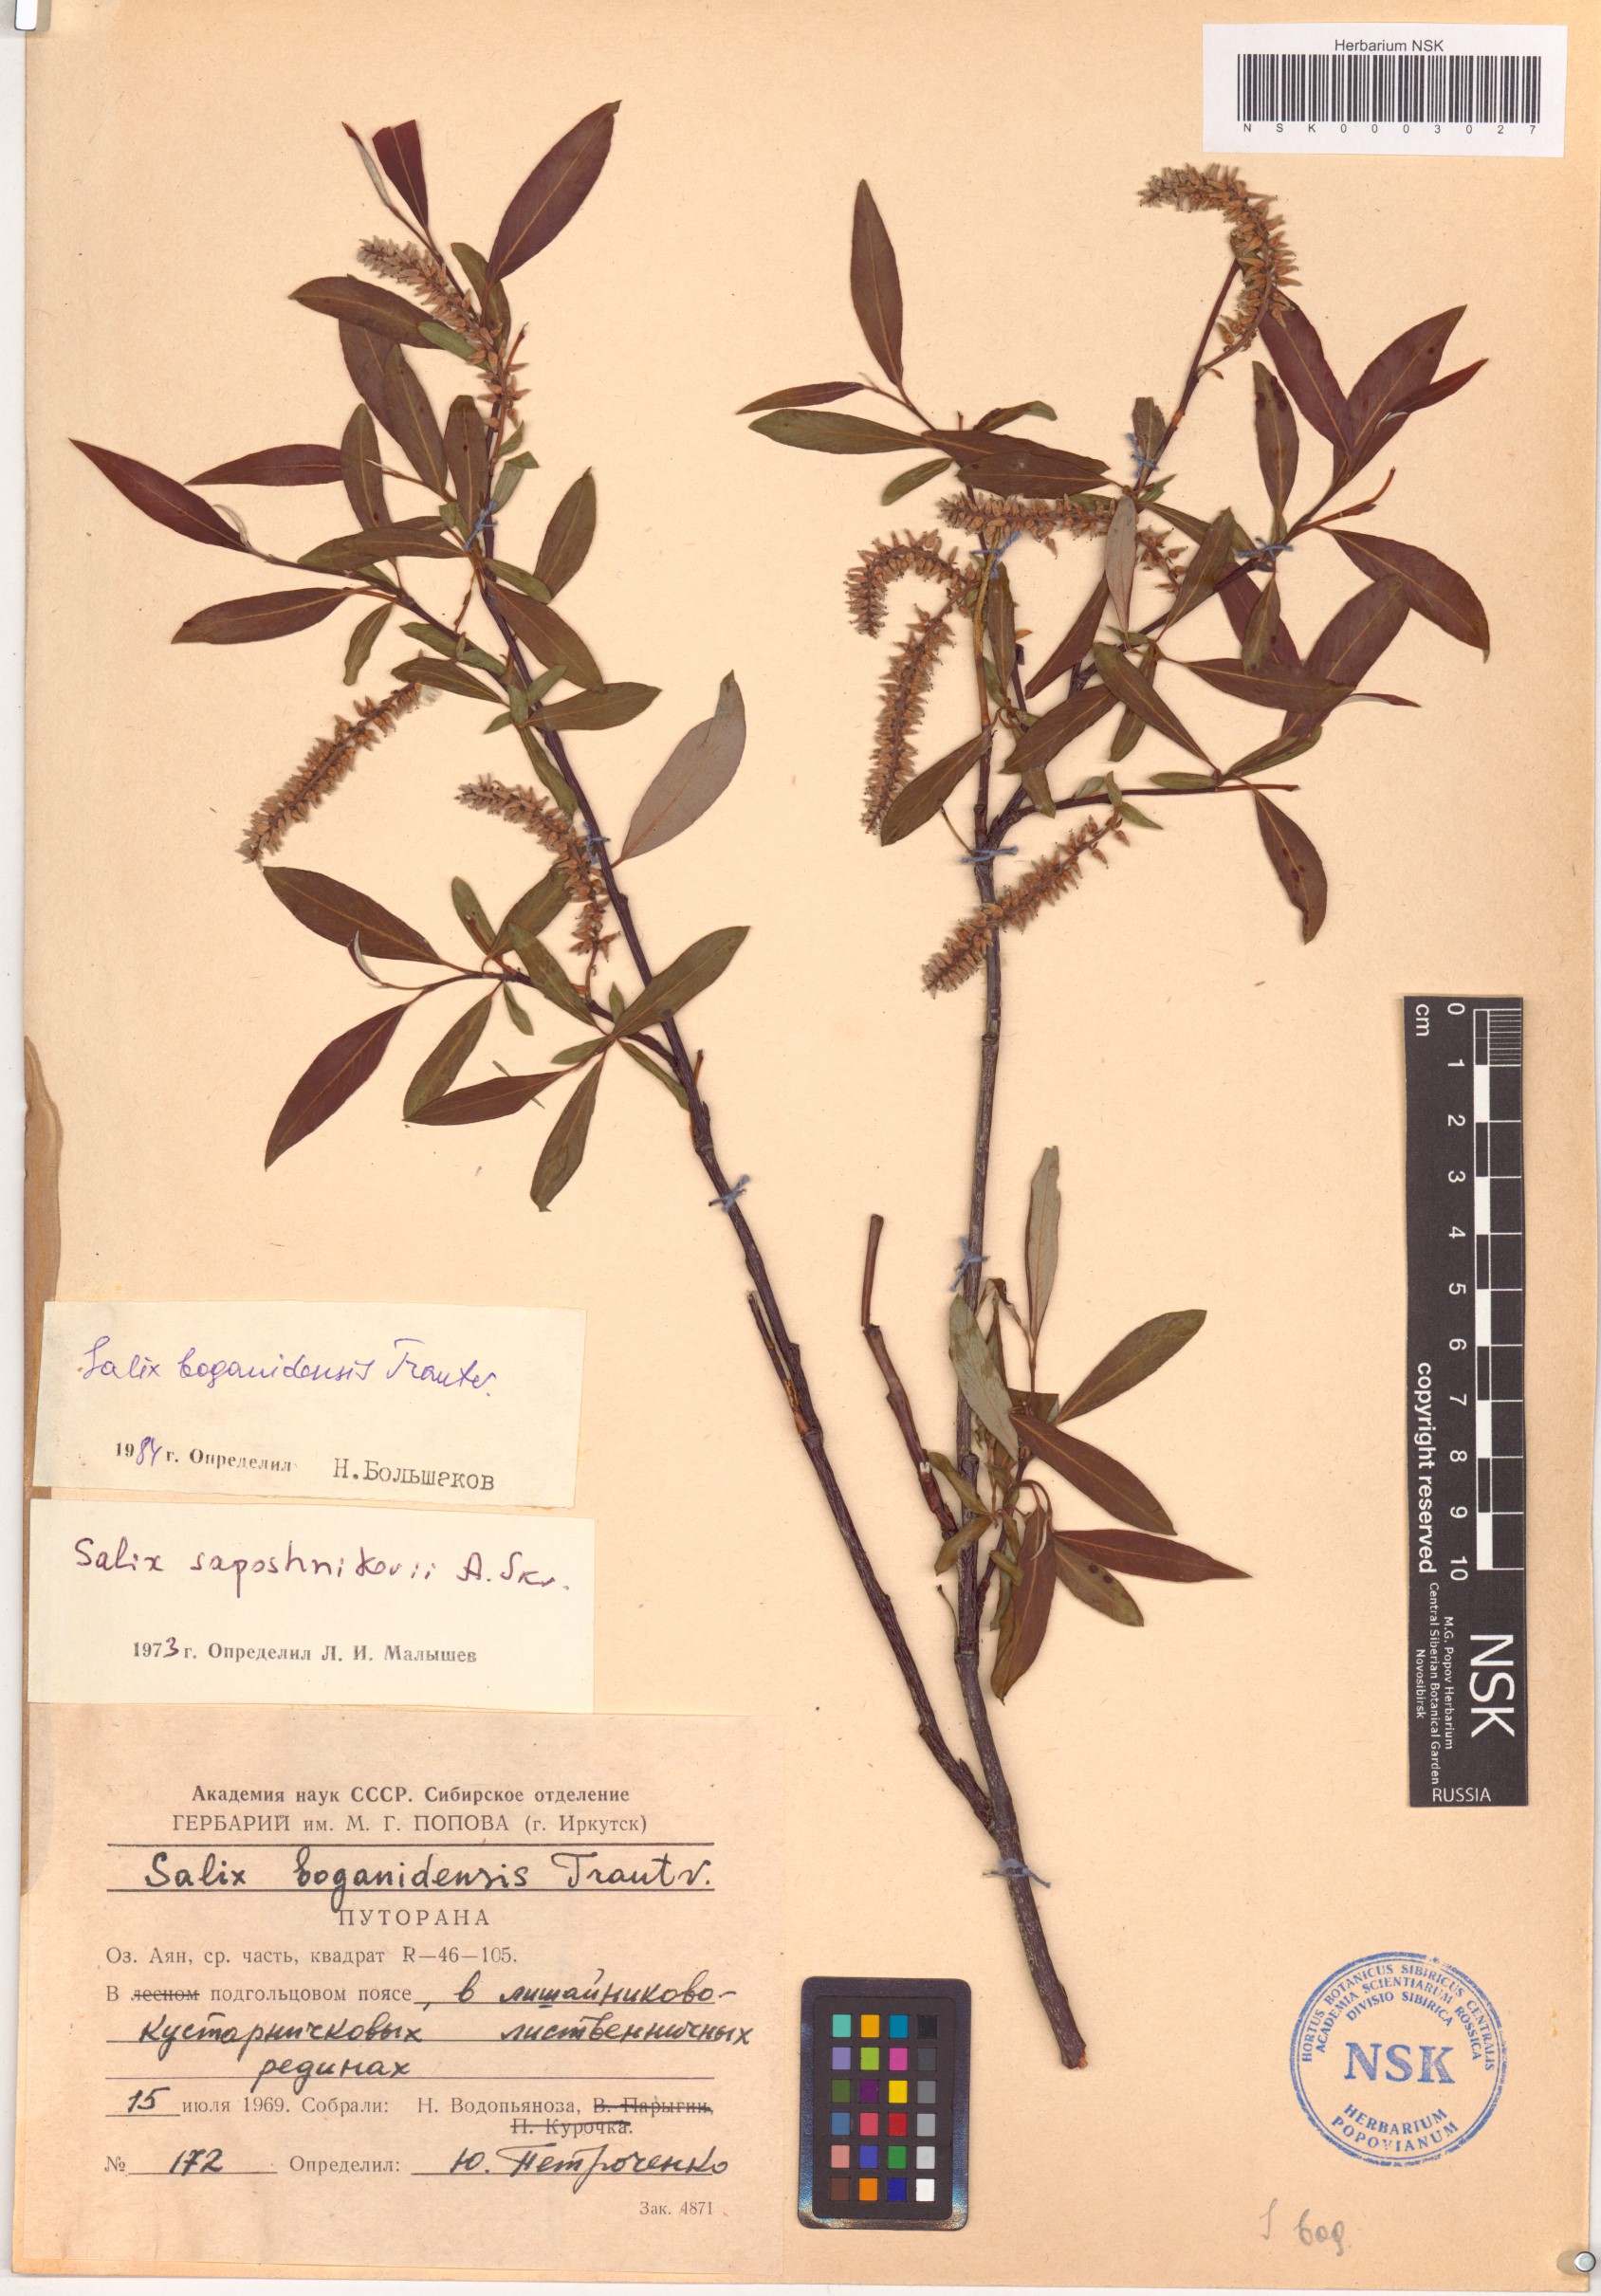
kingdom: Plantae
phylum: Tracheophyta
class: Magnoliopsida
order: Malpighiales
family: Salicaceae
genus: Salix
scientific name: Salix boganidensis
